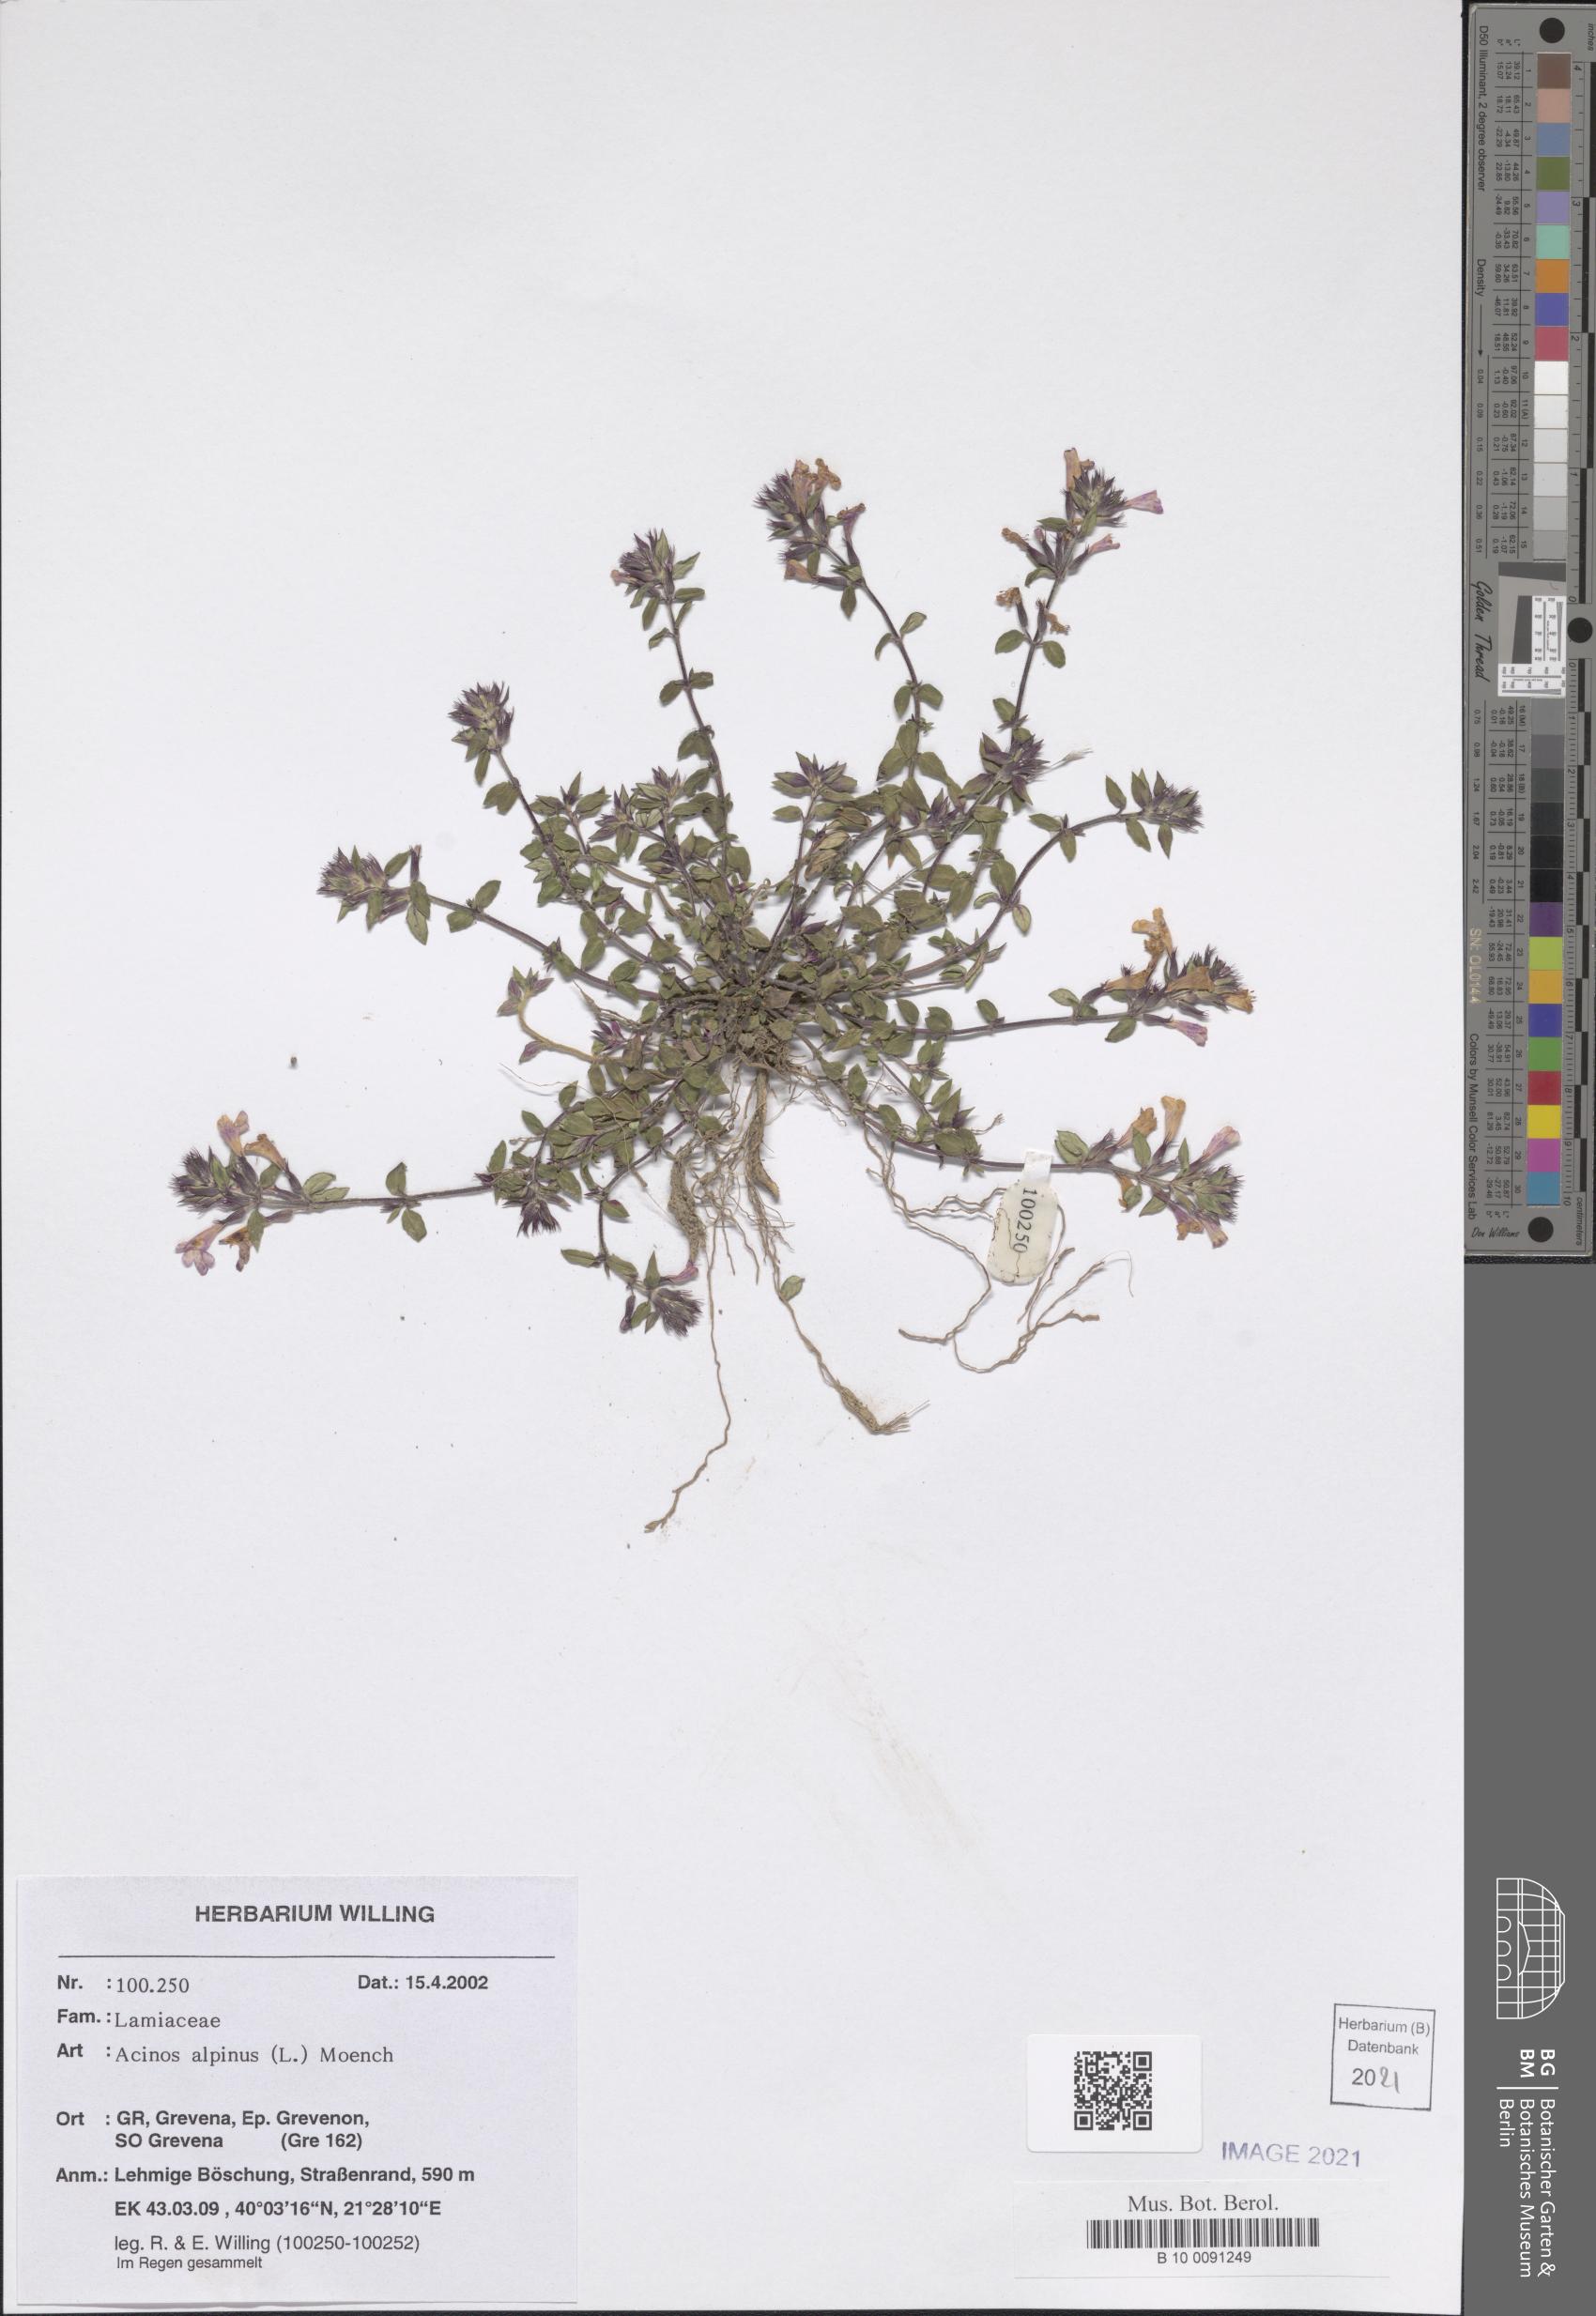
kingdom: Plantae
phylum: Tracheophyta
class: Magnoliopsida
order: Lamiales
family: Lamiaceae
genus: Clinopodium
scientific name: Clinopodium alpinum
